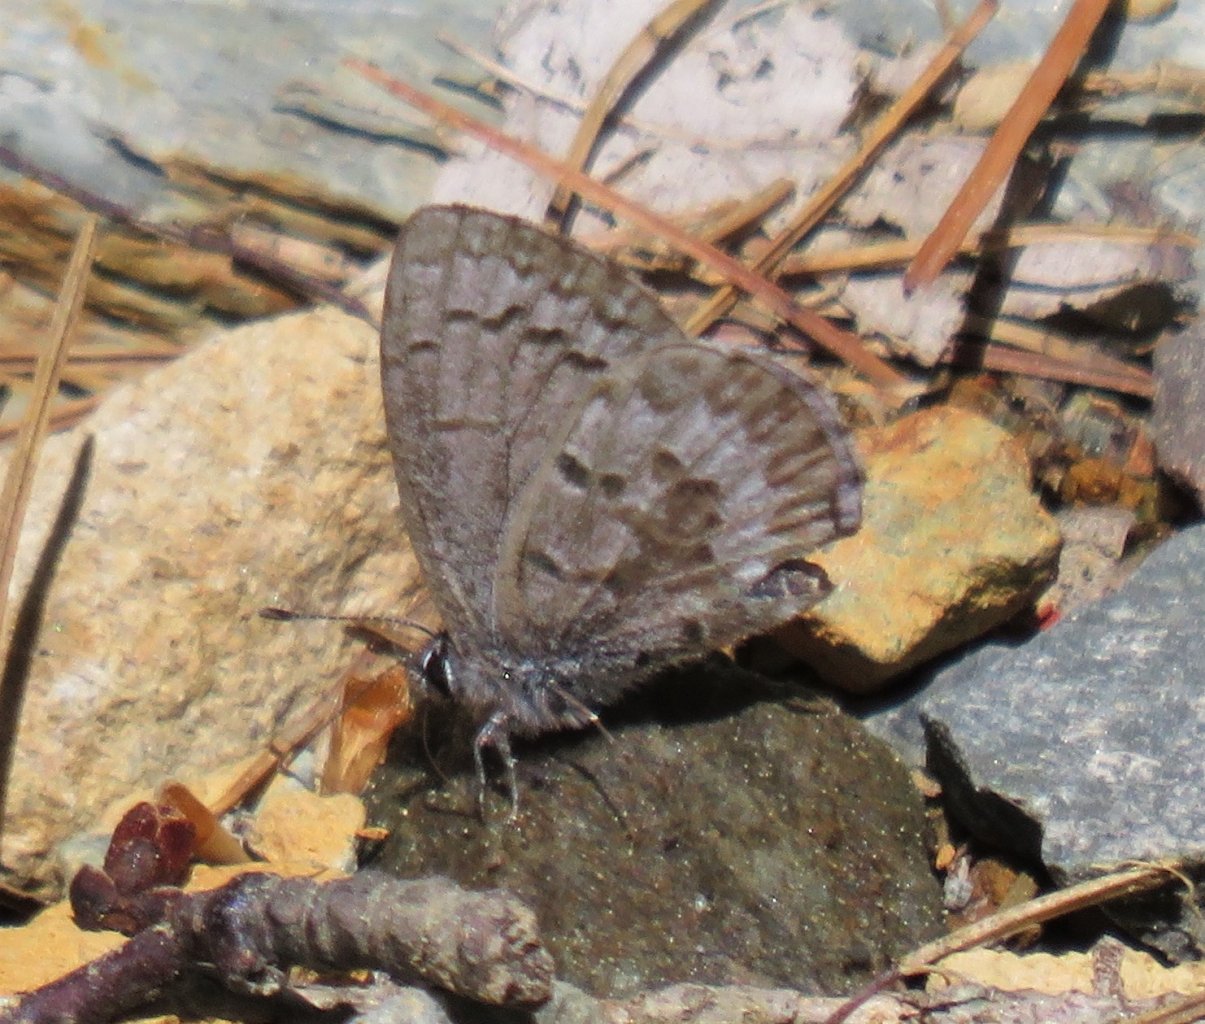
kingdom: Animalia
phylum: Arthropoda
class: Insecta
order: Lepidoptera
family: Lycaenidae
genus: Celastrina
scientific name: Celastrina lucia
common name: Northern Spring Azure
